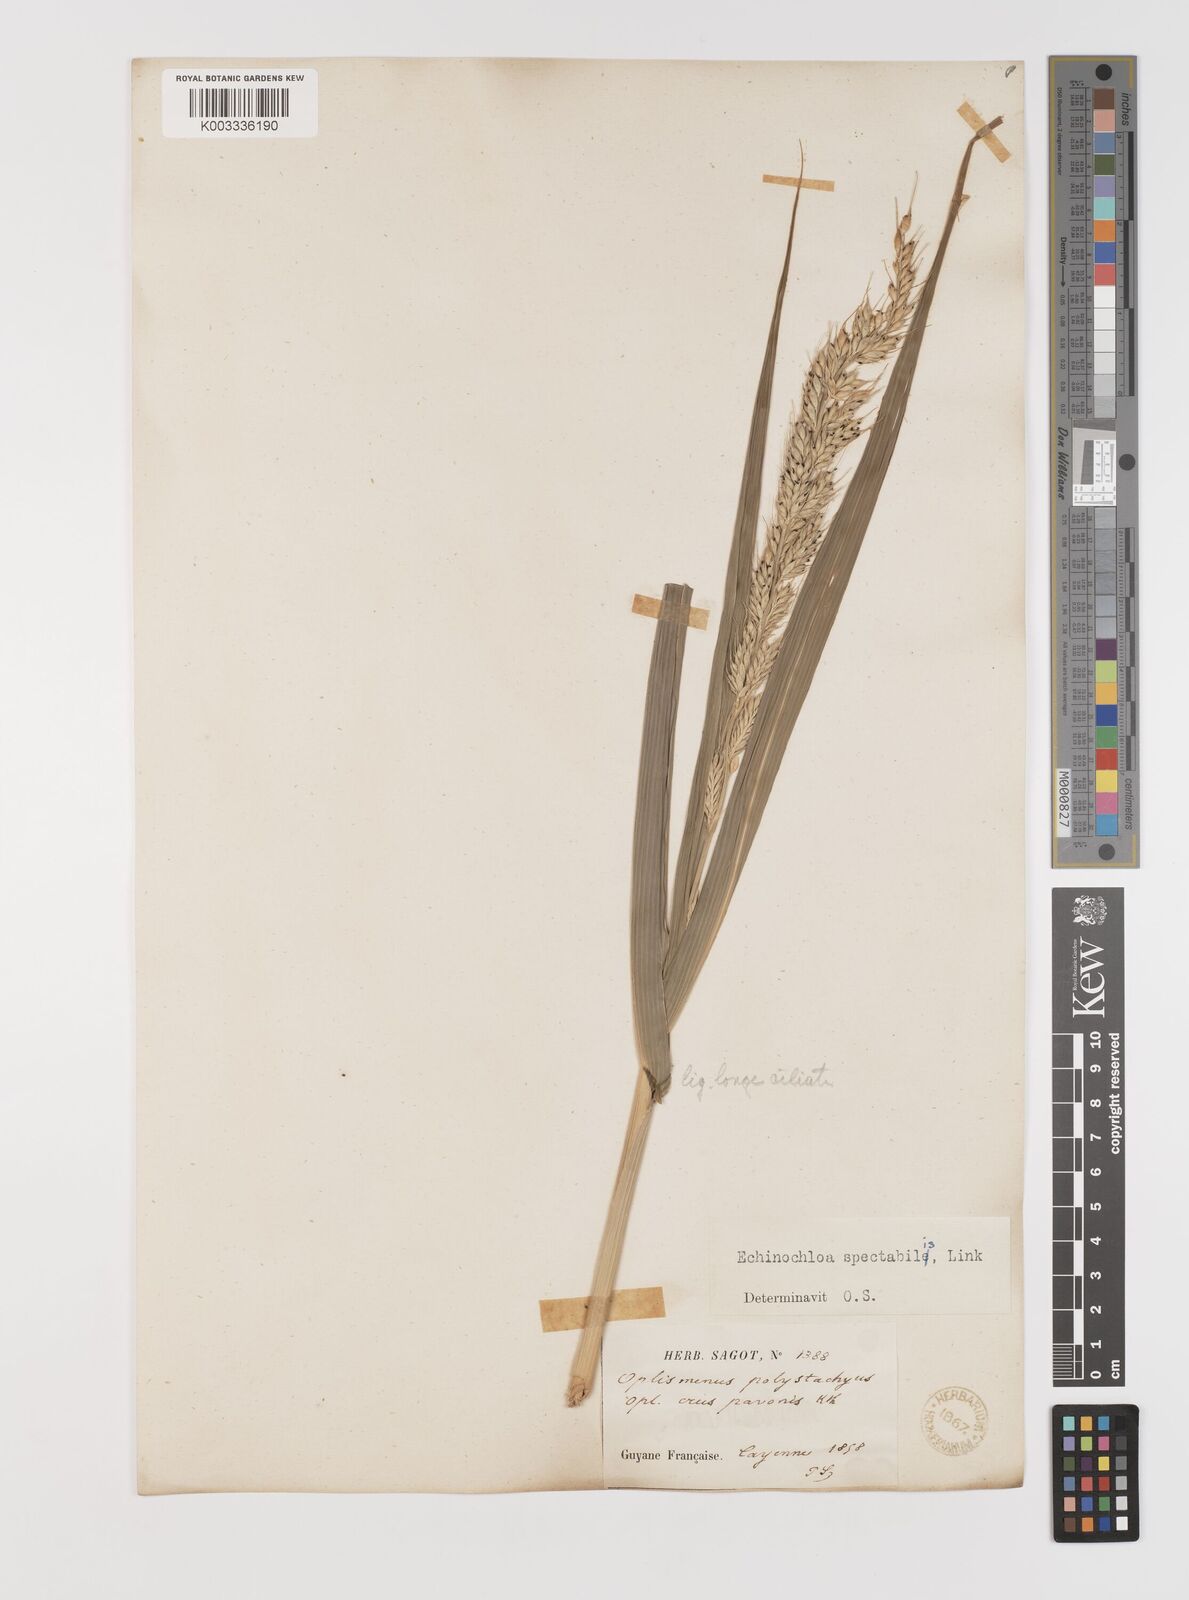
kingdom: Plantae
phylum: Tracheophyta
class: Liliopsida
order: Poales
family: Poaceae
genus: Echinochloa
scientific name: Echinochloa polystachya
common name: Creeping river grass
